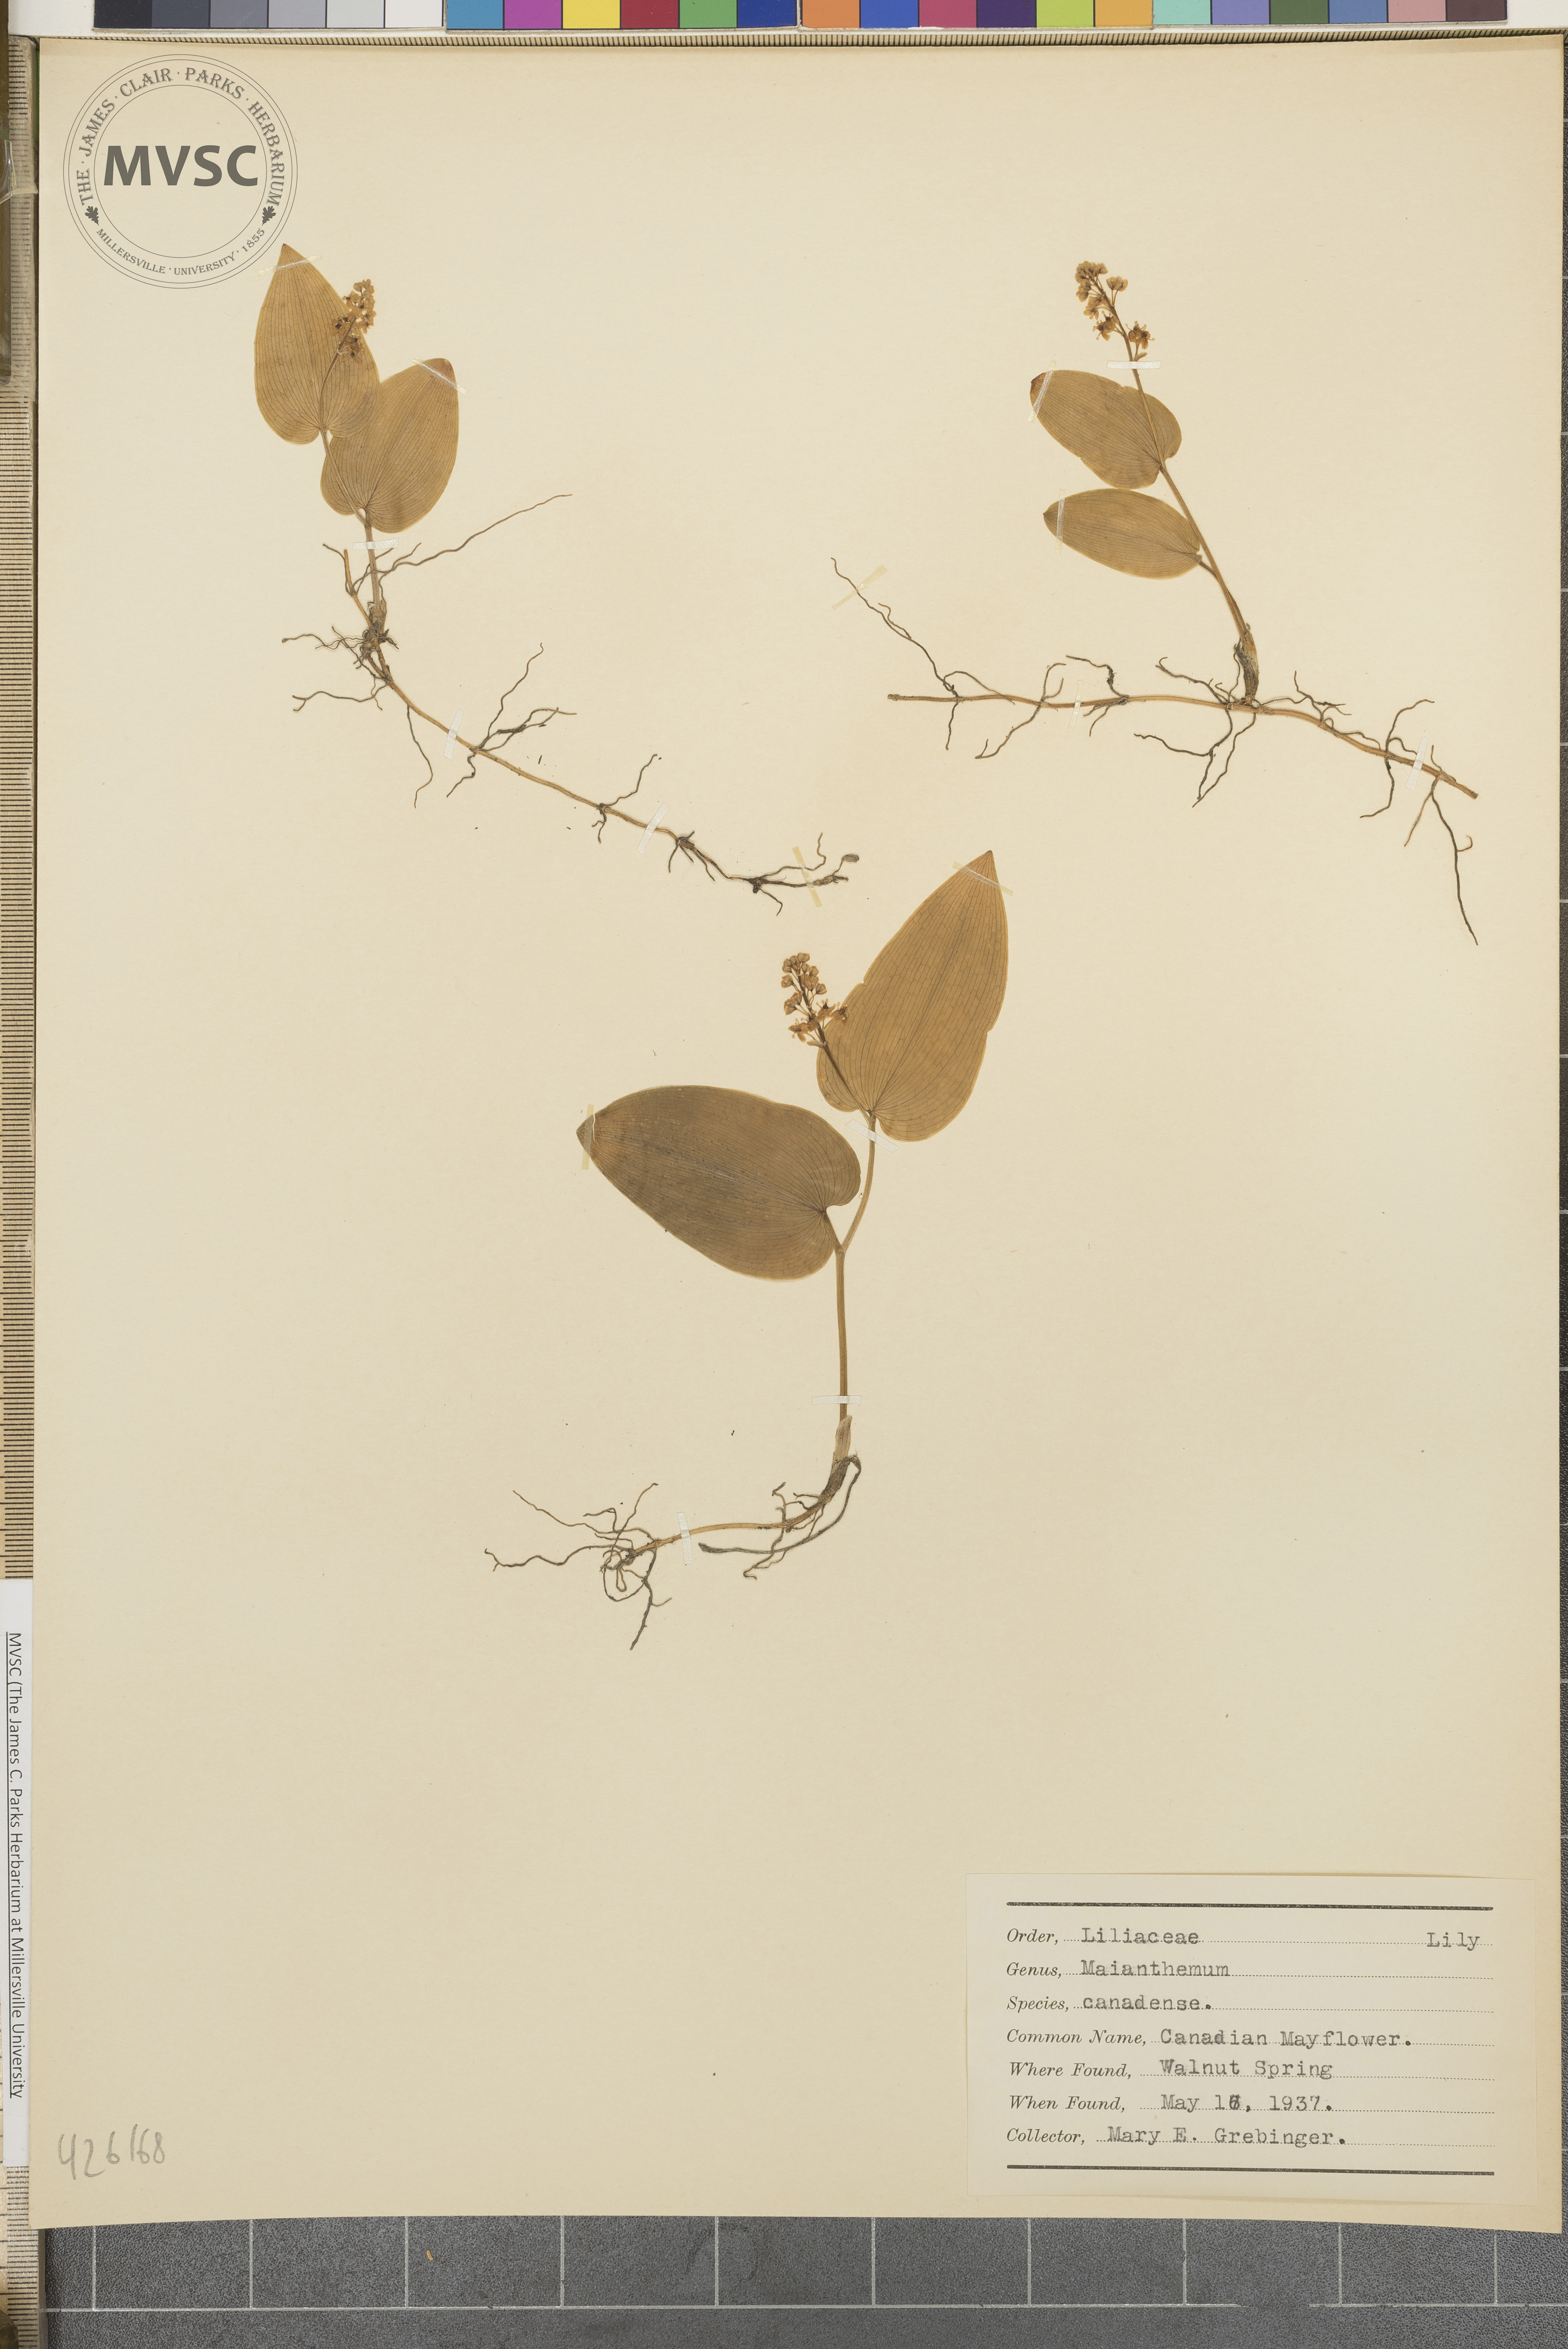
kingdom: Plantae
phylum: Tracheophyta
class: Liliopsida
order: Asparagales
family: Asparagaceae
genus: Maianthemum
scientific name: Maianthemum canadense
